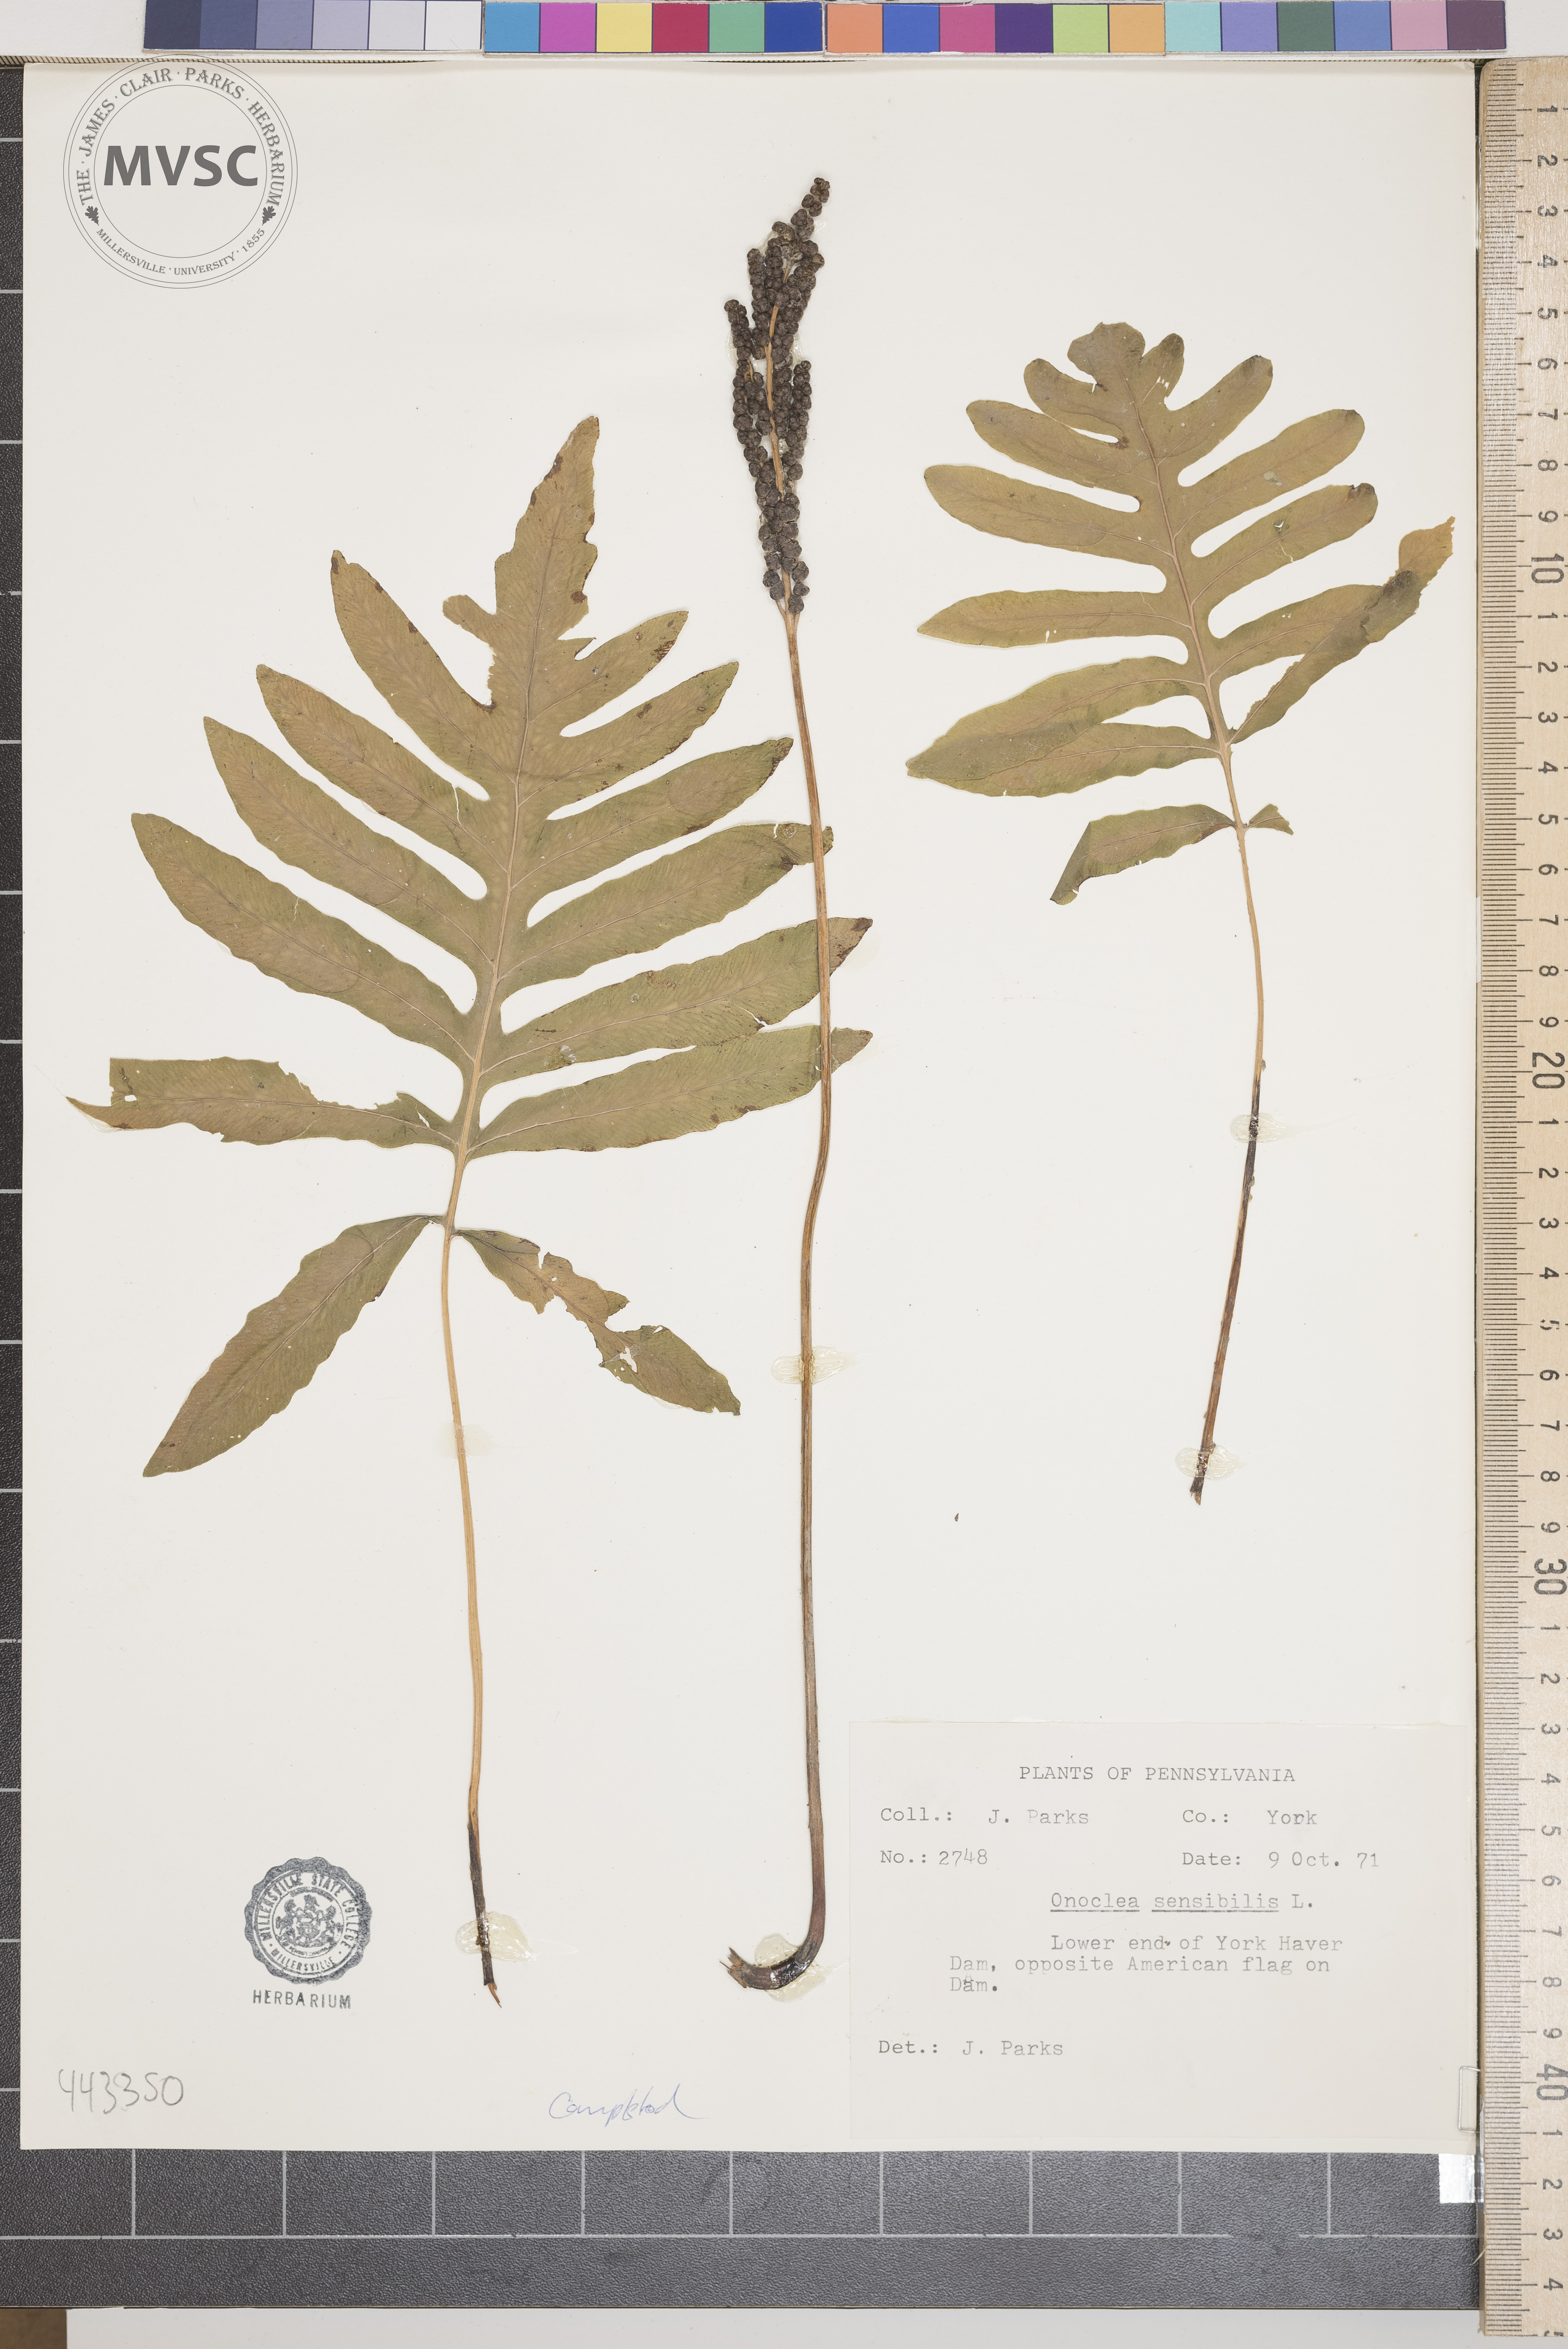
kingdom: Plantae
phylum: Tracheophyta
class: Polypodiopsida
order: Polypodiales
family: Onocleaceae
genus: Onoclea
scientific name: Onoclea sensibilis
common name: Sensitive fern
